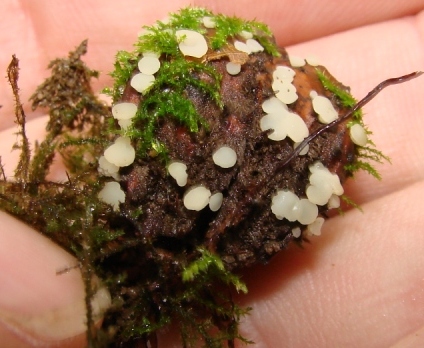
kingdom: Fungi
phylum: Ascomycota
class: Leotiomycetes
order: Helotiales
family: Helotiaceae
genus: Hymenoscyphus
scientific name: Hymenoscyphus fagineus
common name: vellugtende stilkskive
